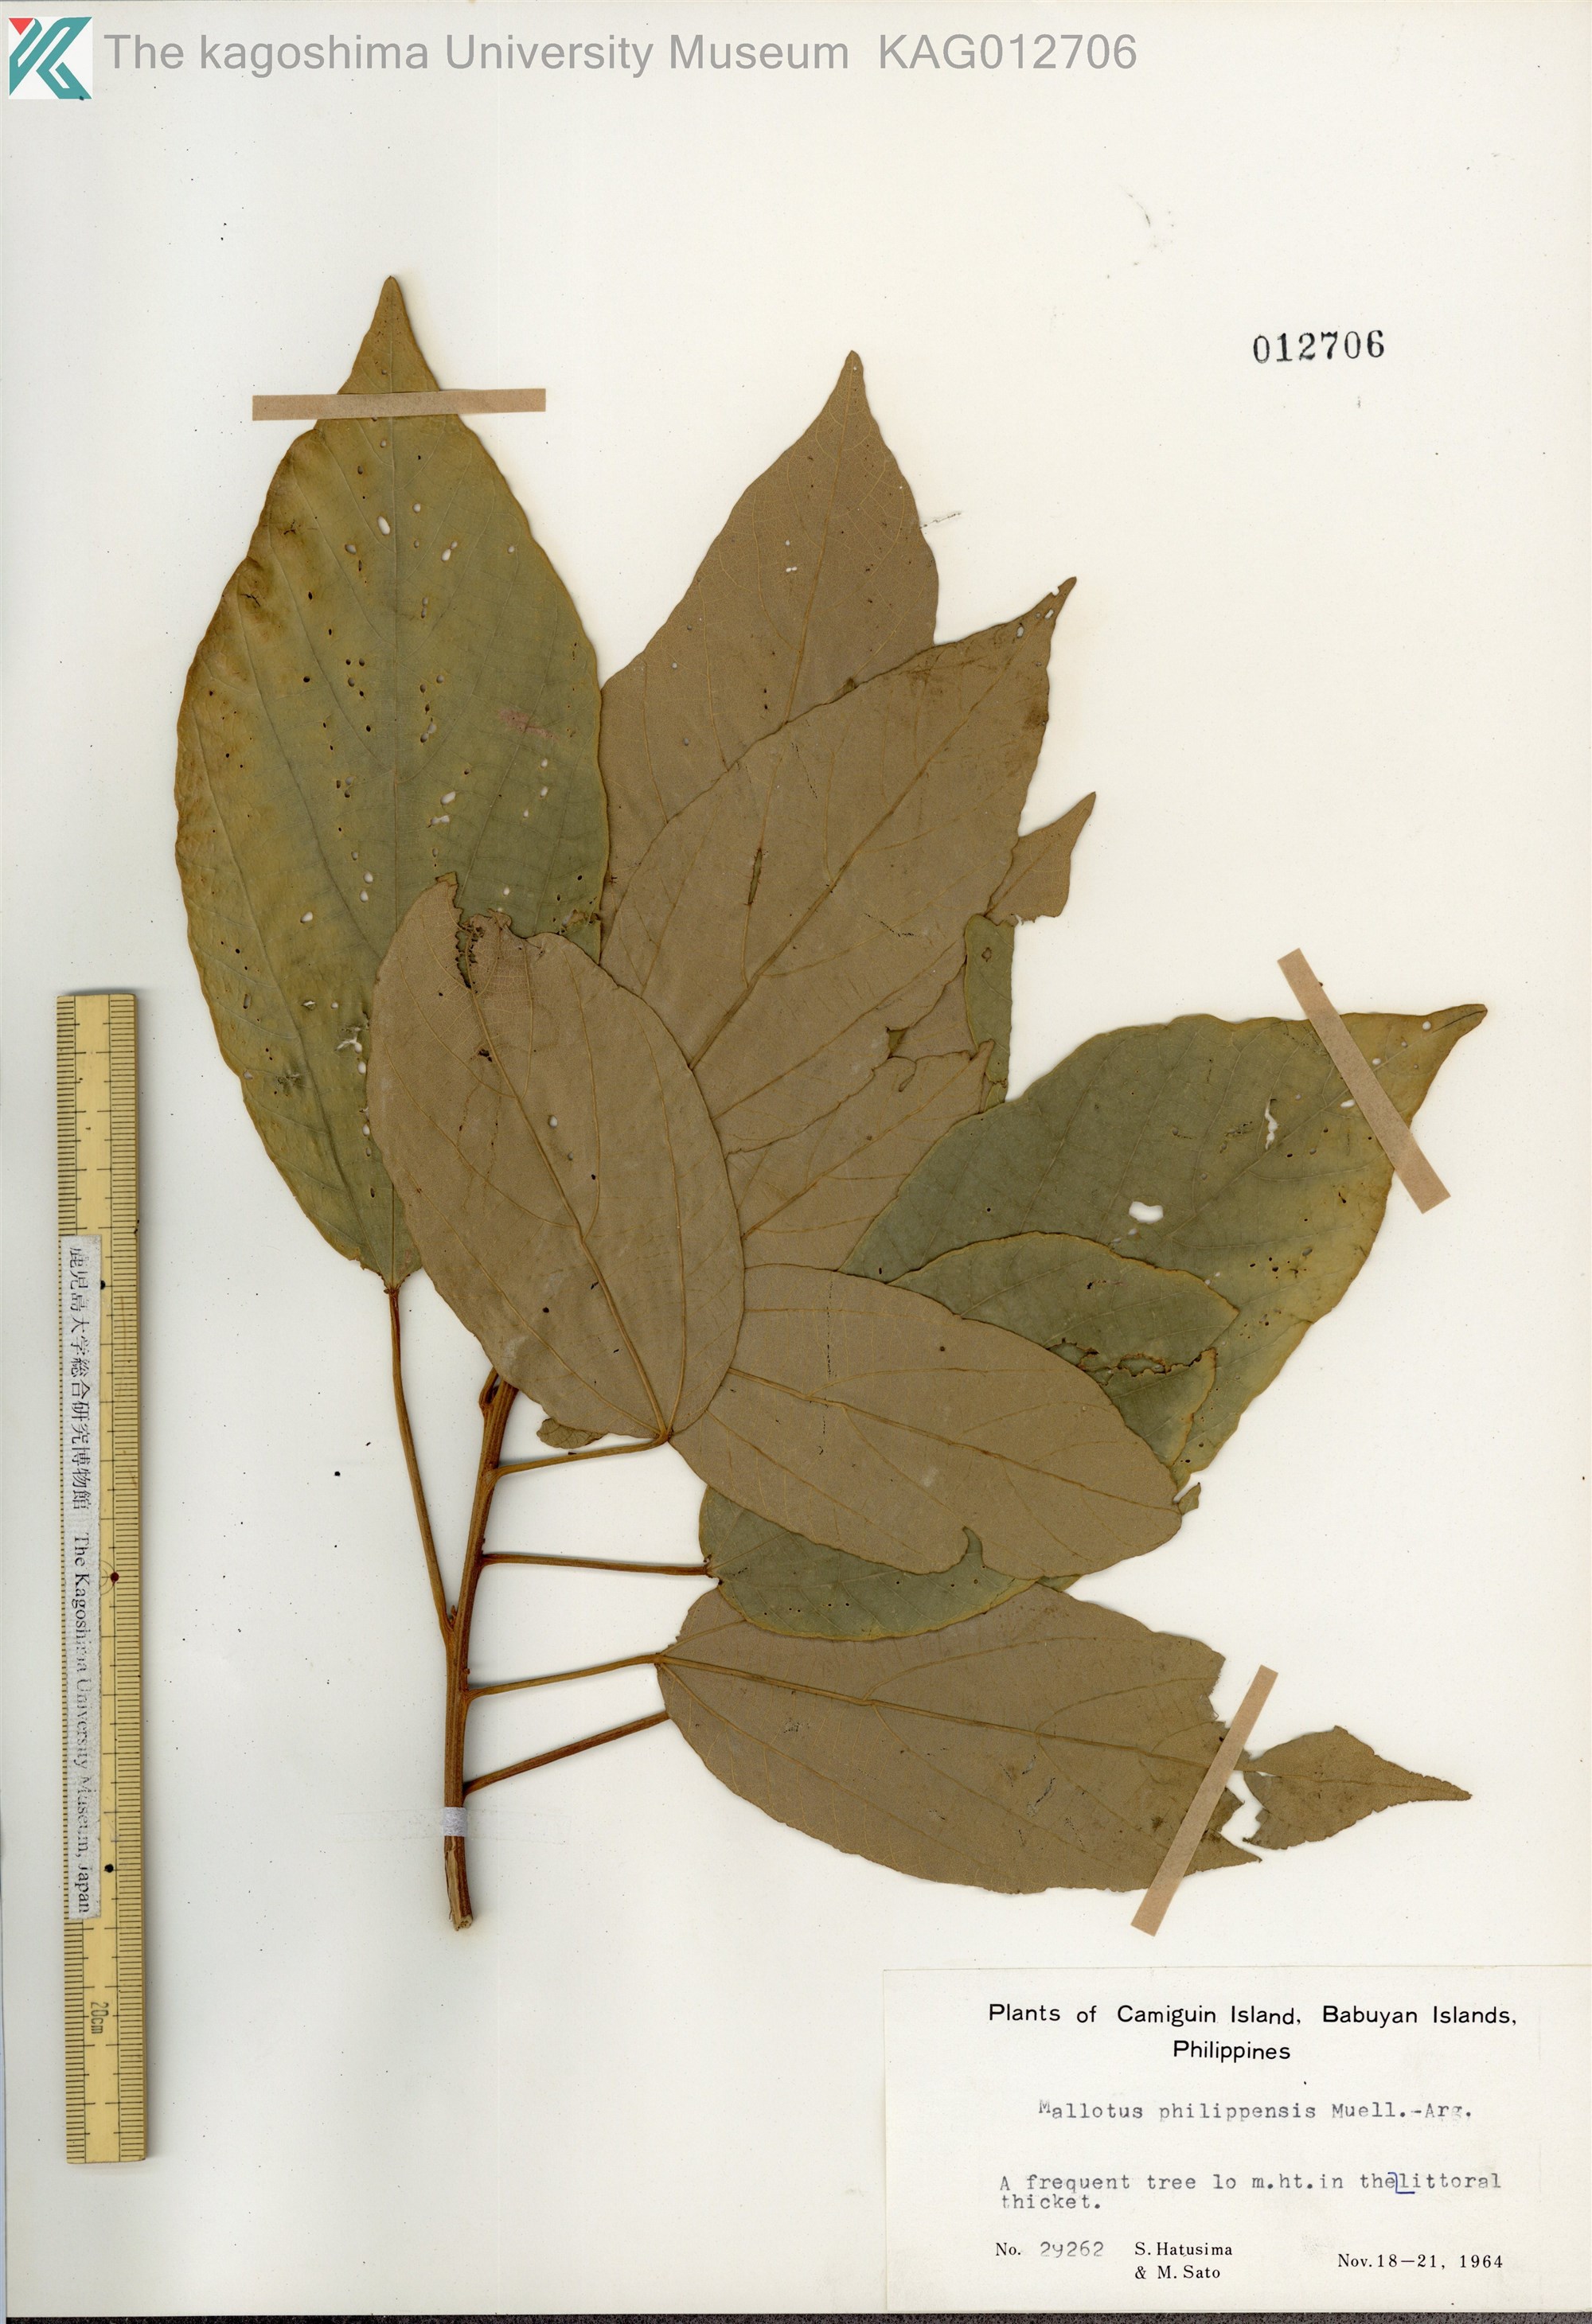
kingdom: Plantae
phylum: Tracheophyta
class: Magnoliopsida
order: Malpighiales
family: Euphorbiaceae
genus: Mallotus
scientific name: Mallotus philippensis
